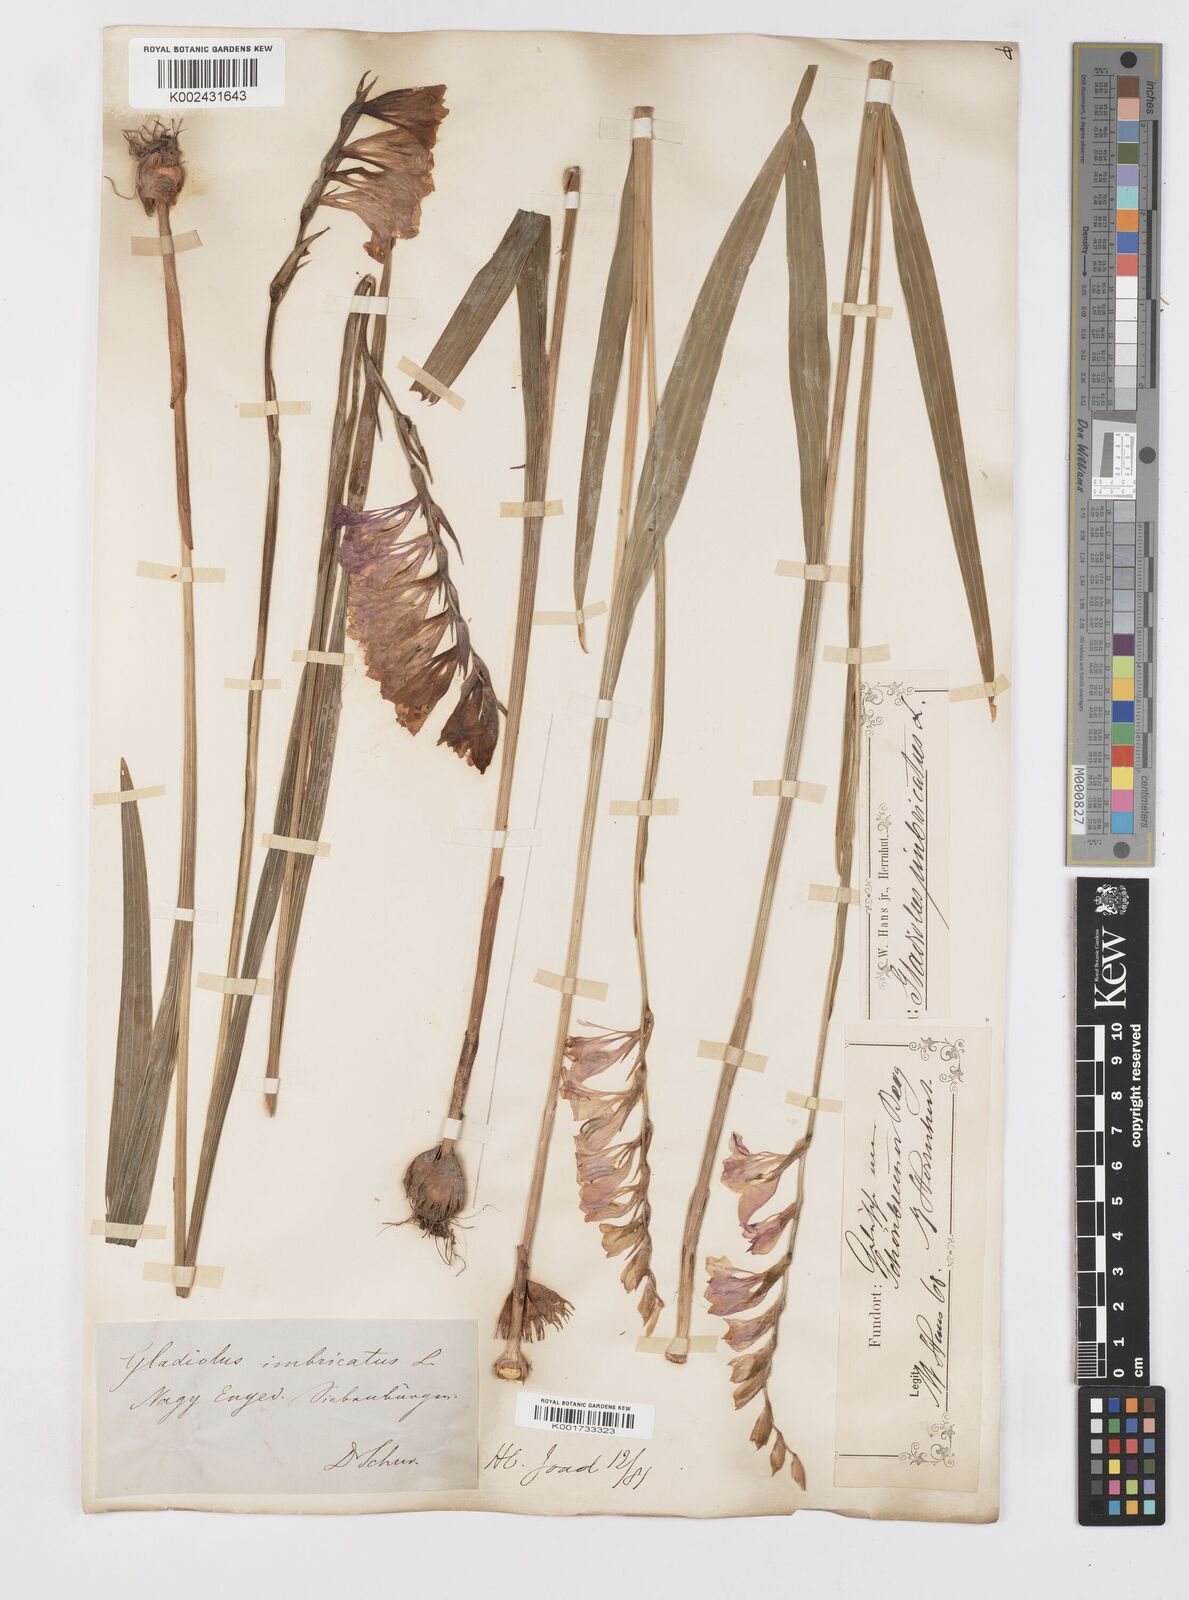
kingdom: Plantae
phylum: Tracheophyta
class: Liliopsida
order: Asparagales
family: Iridaceae
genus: Gladiolus
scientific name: Gladiolus imbricatus
